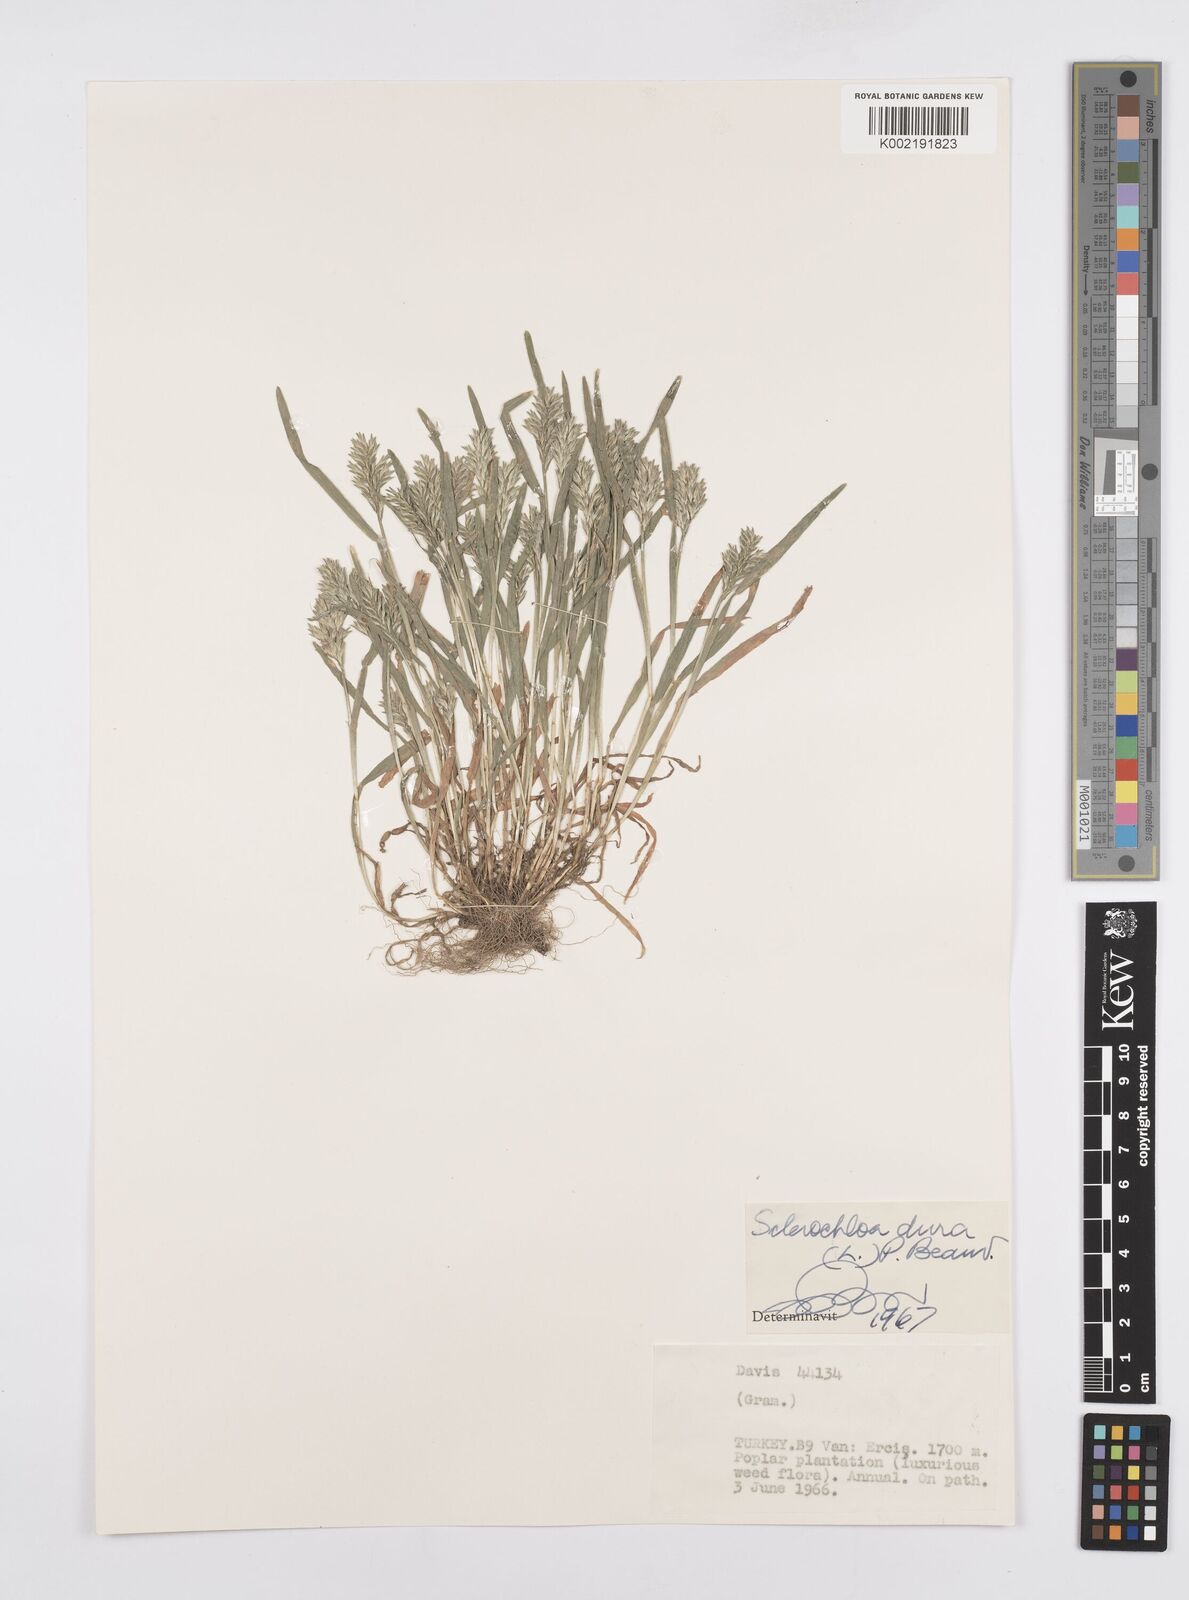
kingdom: Plantae
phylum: Tracheophyta
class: Liliopsida
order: Poales
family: Poaceae
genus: Sclerochloa
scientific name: Sclerochloa dura
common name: Common hardgrass
